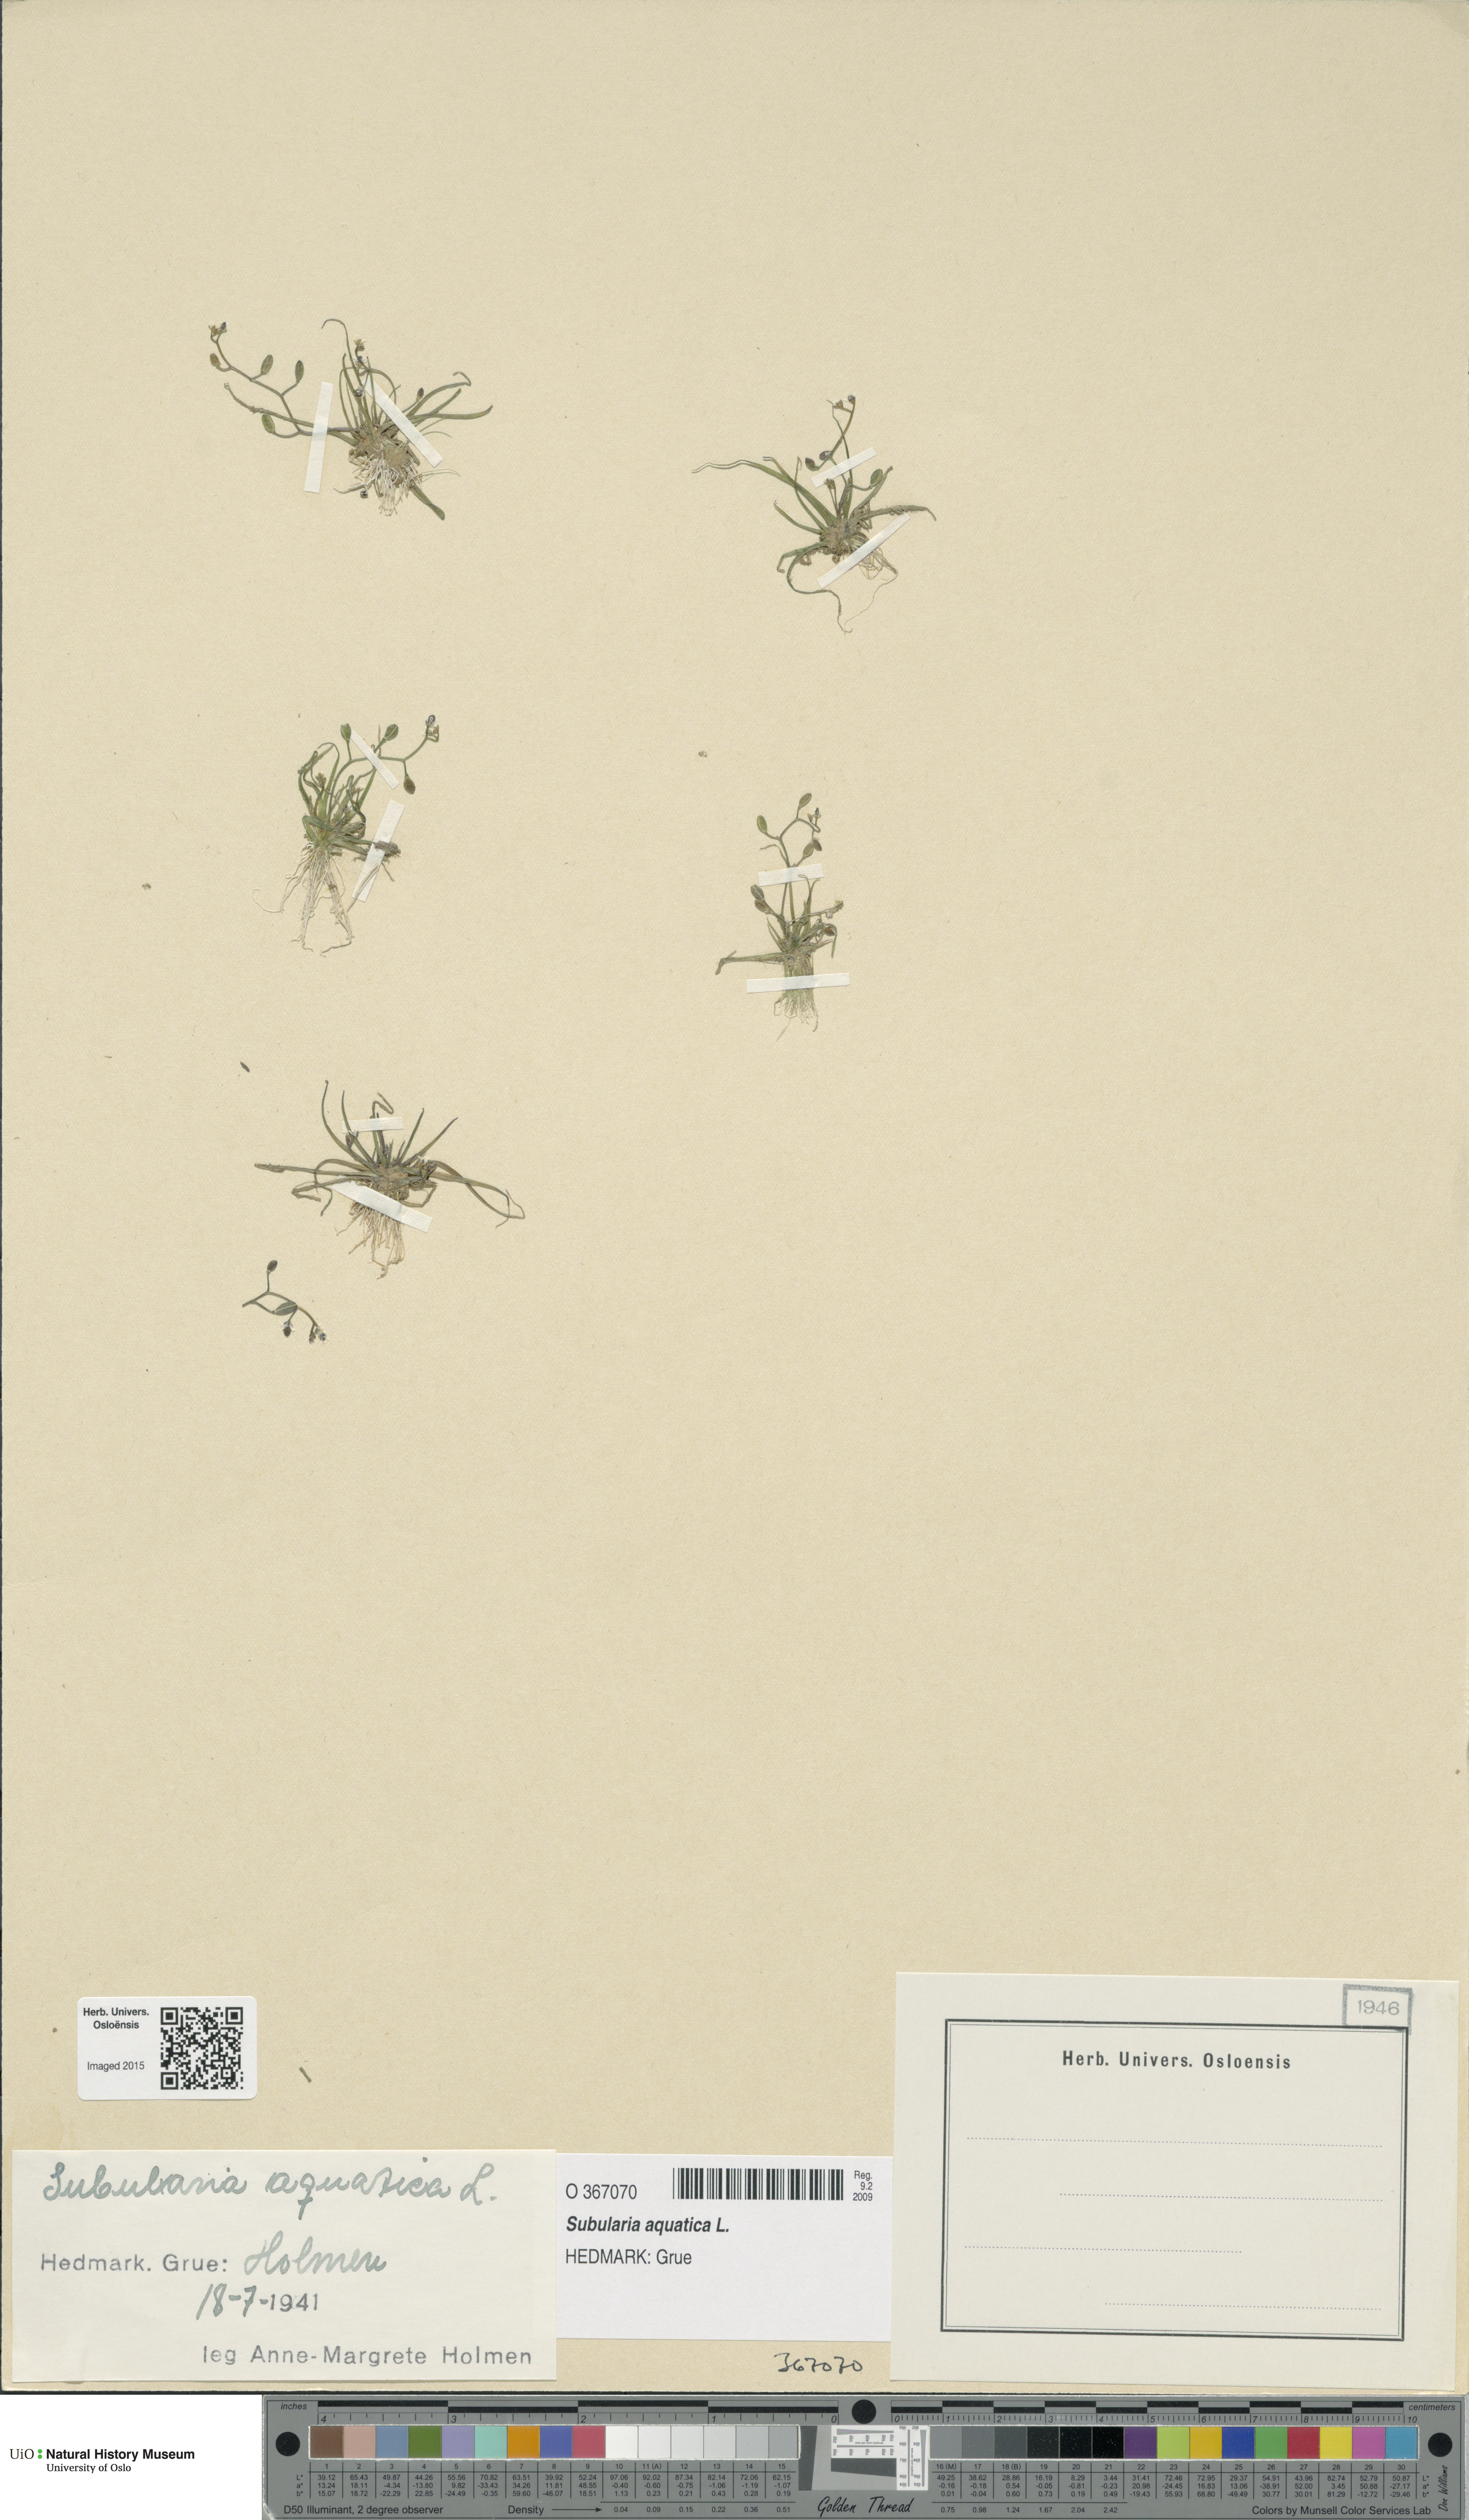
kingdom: Plantae
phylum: Tracheophyta
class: Magnoliopsida
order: Brassicales
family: Brassicaceae
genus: Subularia
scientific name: Subularia aquatica
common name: Awlwort
